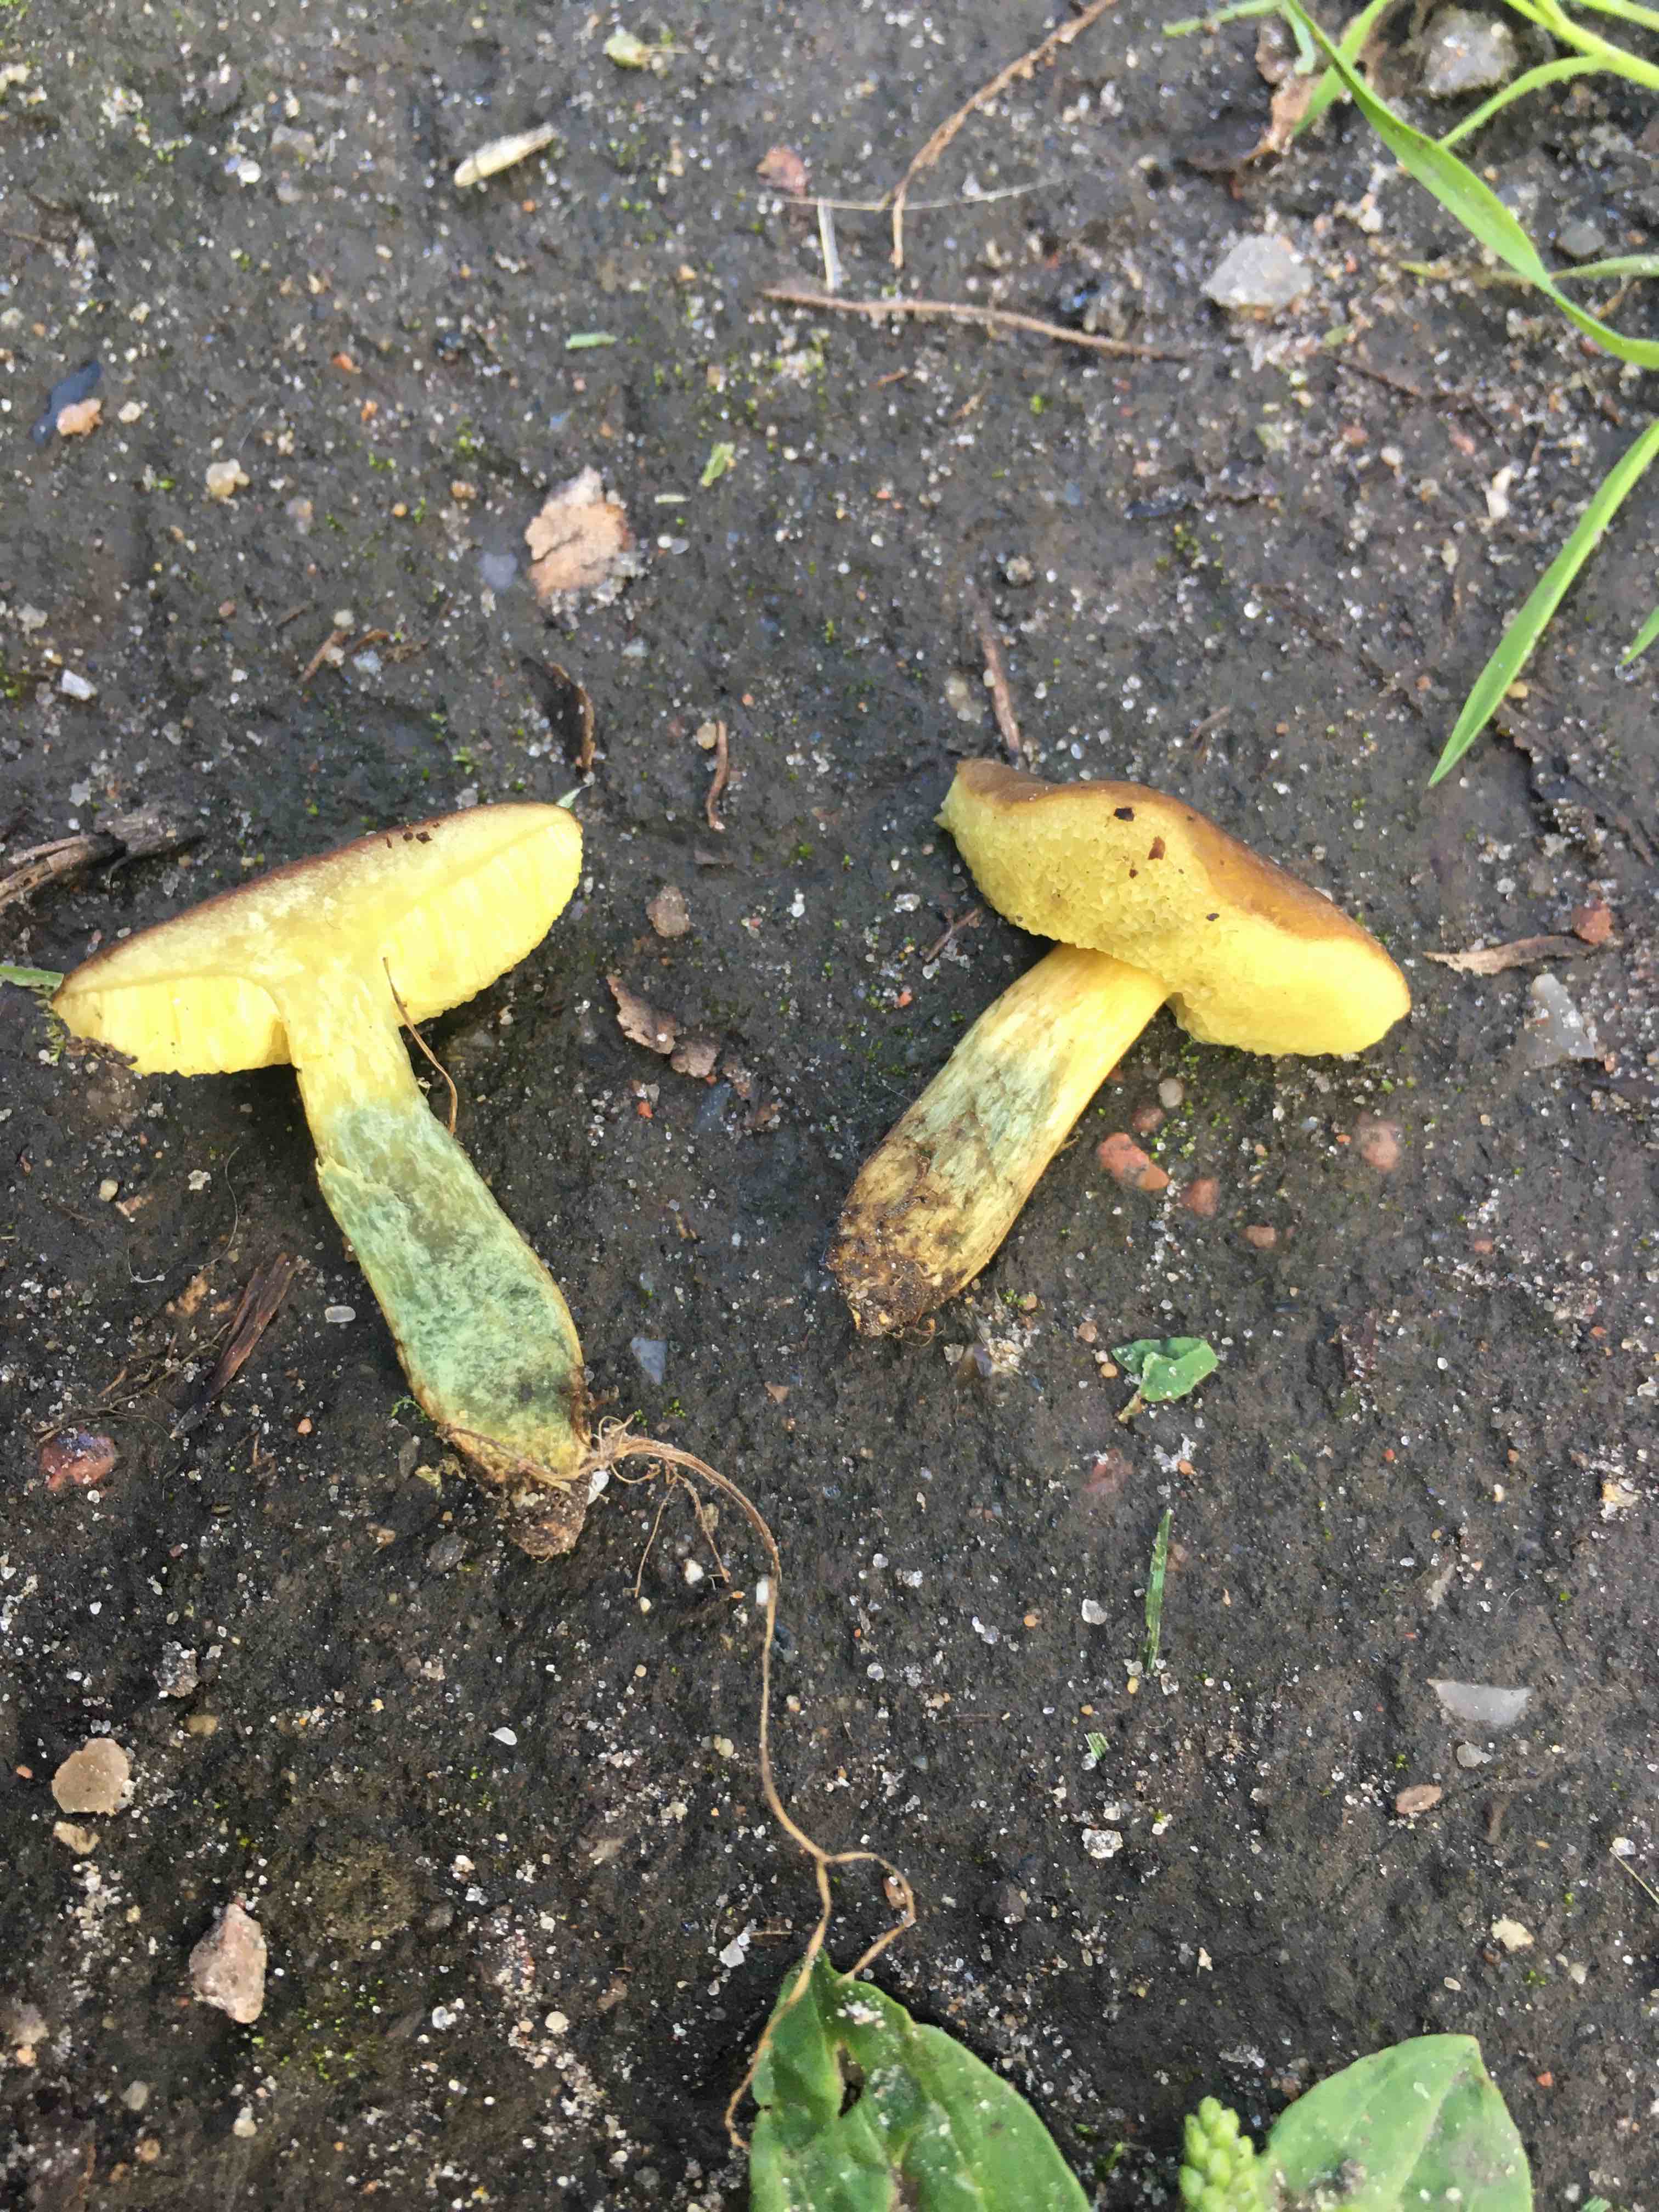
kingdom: Fungi
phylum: Basidiomycota
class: Agaricomycetes
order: Boletales
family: Boletaceae
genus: Xerocomellus
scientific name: Xerocomellus cisalpinus
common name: finsprukken rørhat
